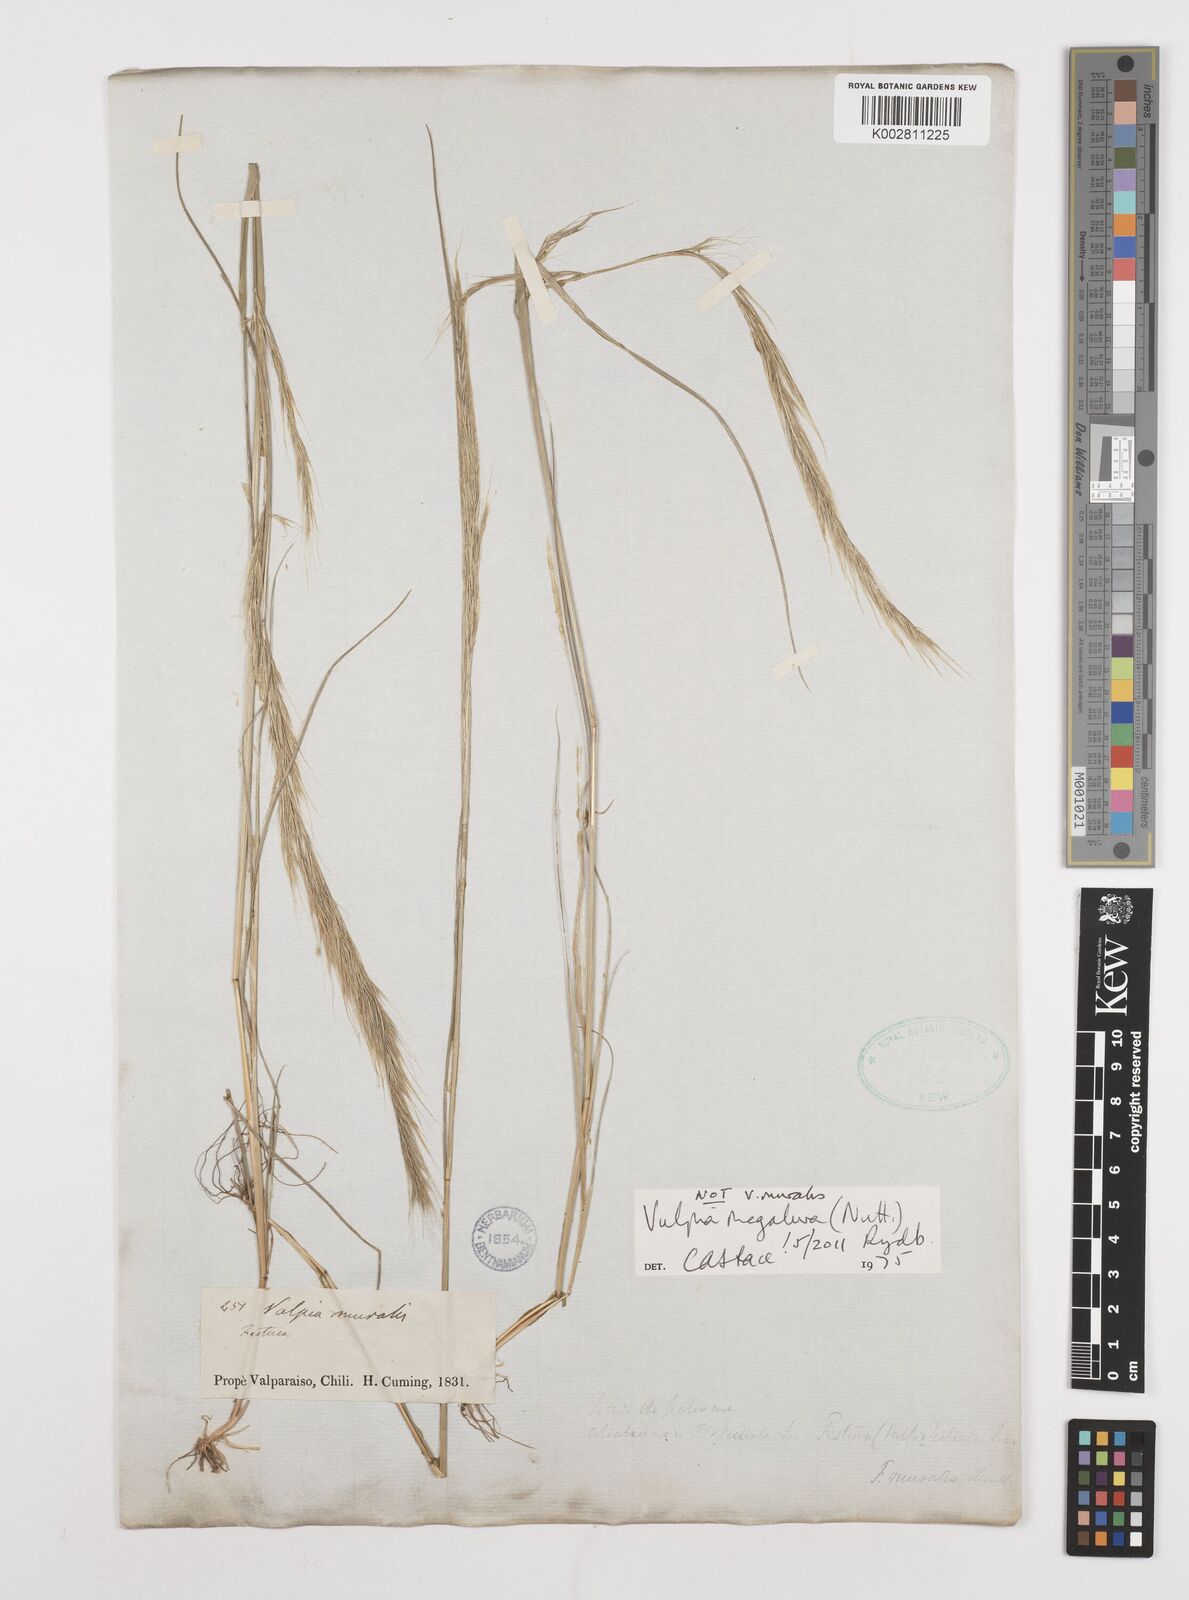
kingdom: Plantae
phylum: Tracheophyta
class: Liliopsida
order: Poales
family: Poaceae
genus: Festuca
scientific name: Festuca myuros
